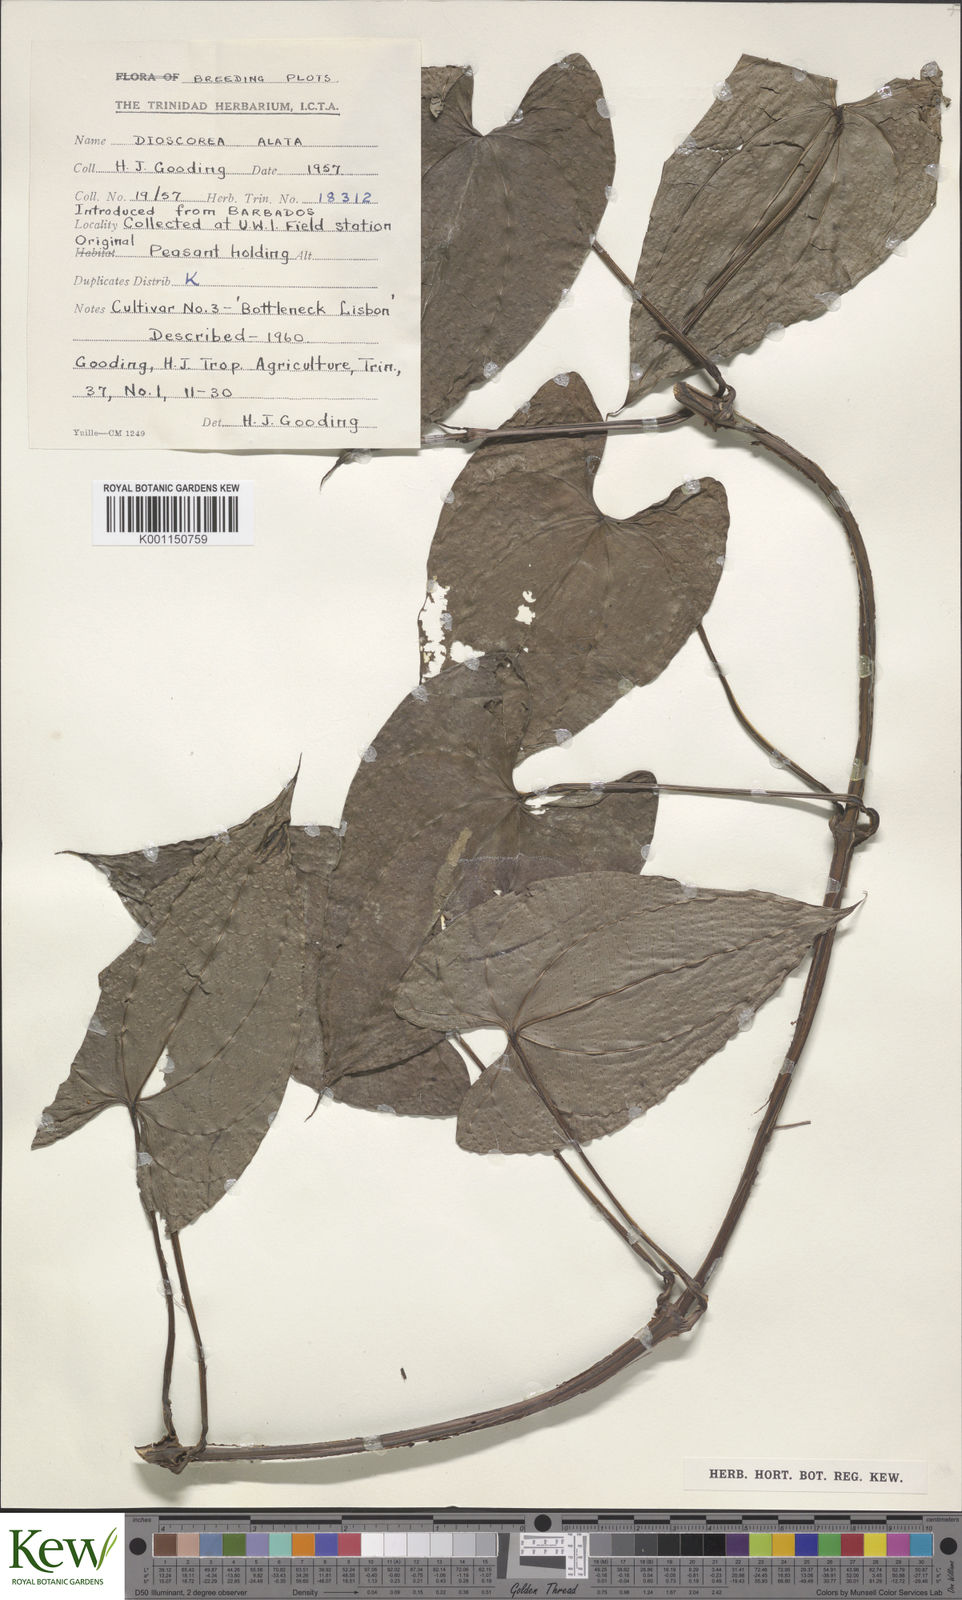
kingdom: Plantae
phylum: Tracheophyta
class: Liliopsida
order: Dioscoreales
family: Dioscoreaceae
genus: Dioscorea
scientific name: Dioscorea alata
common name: Water yam
